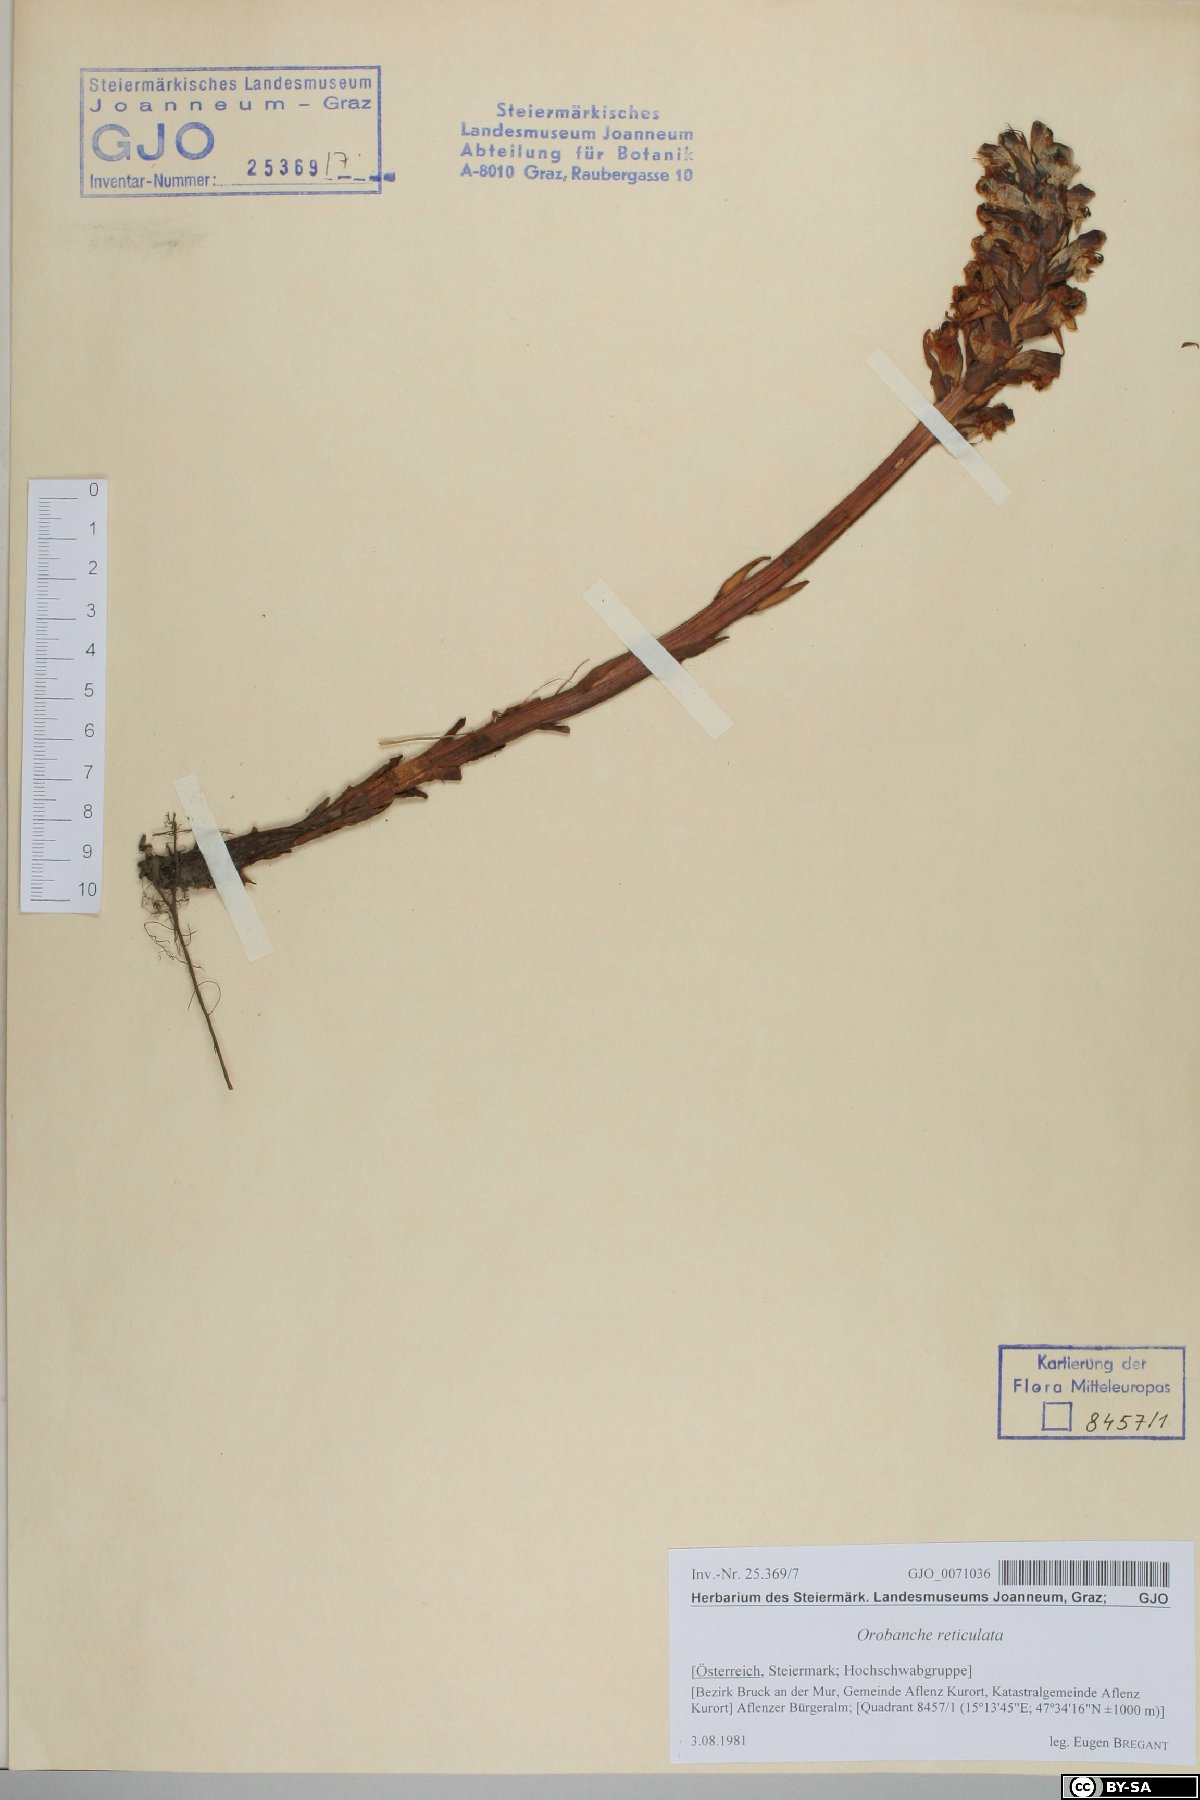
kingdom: Plantae
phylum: Tracheophyta
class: Magnoliopsida
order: Lamiales
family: Orobanchaceae
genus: Orobanche
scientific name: Orobanche reticulata
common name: Thistle broomrape
